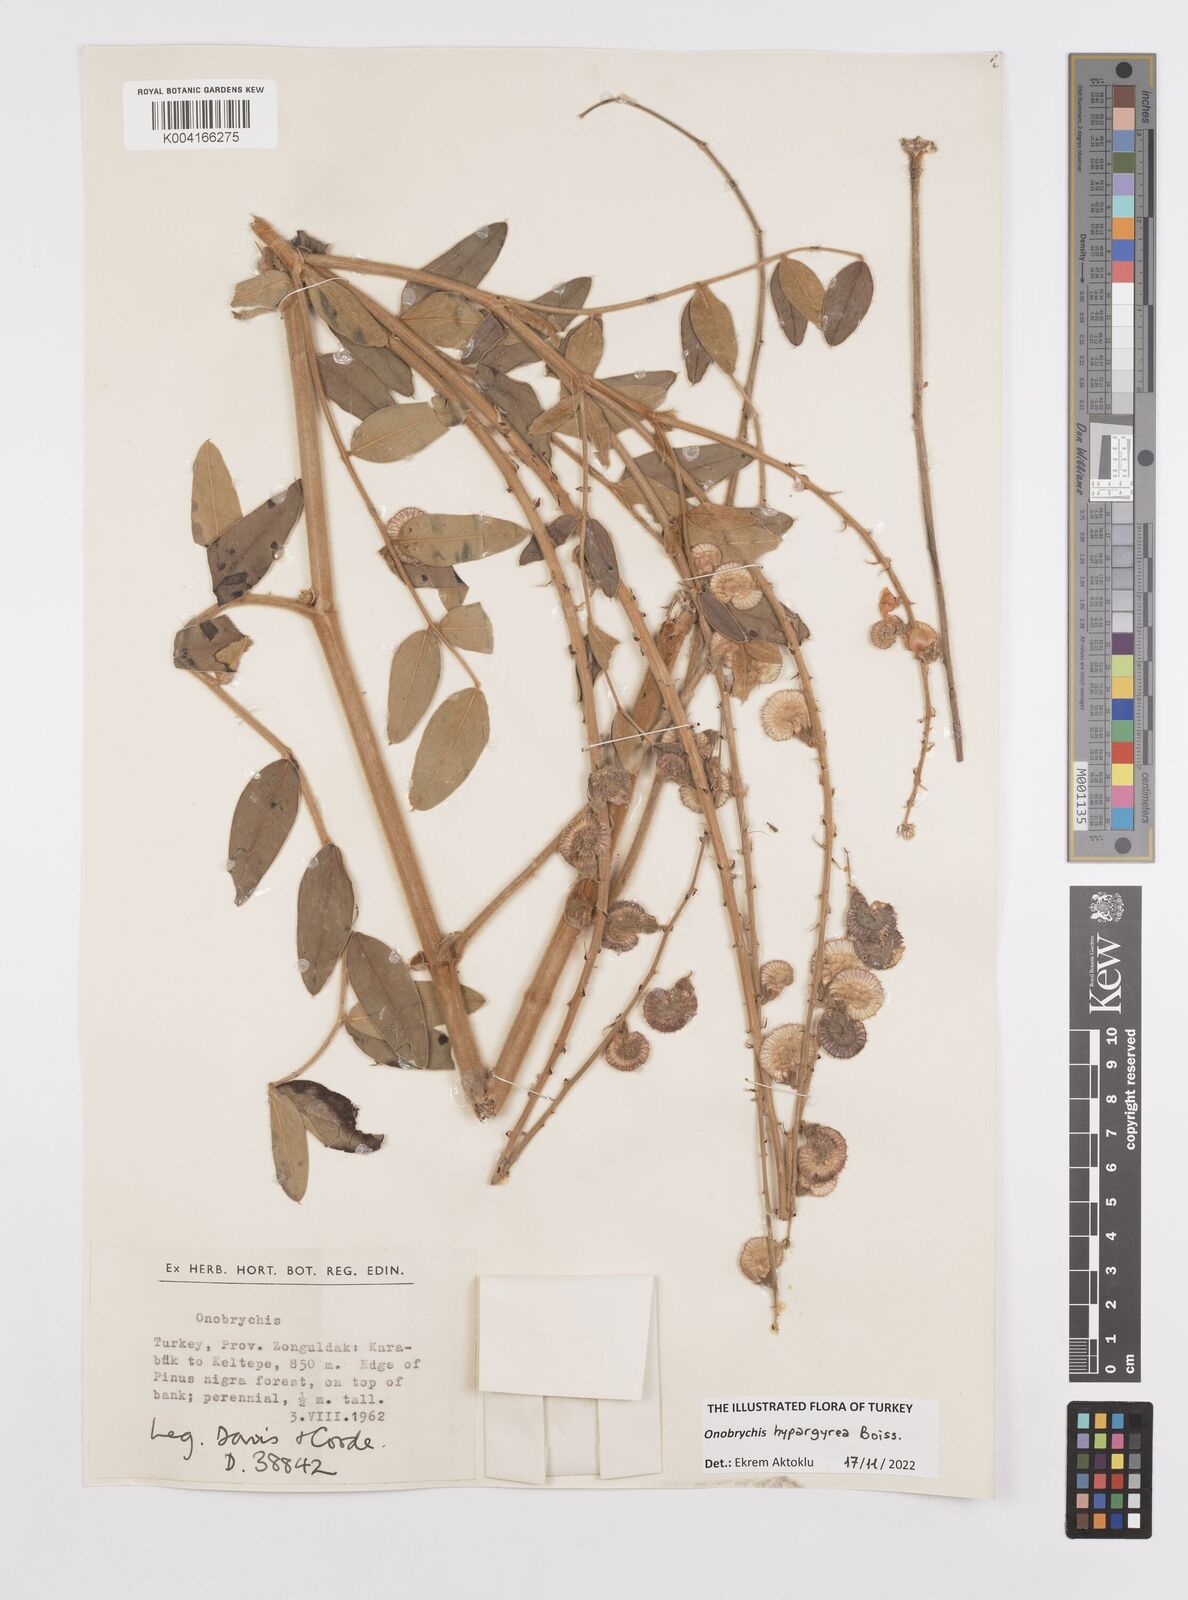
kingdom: Plantae
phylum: Tracheophyta
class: Magnoliopsida
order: Fabales
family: Fabaceae
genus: Onobrychis
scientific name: Onobrychis hypargyrea
